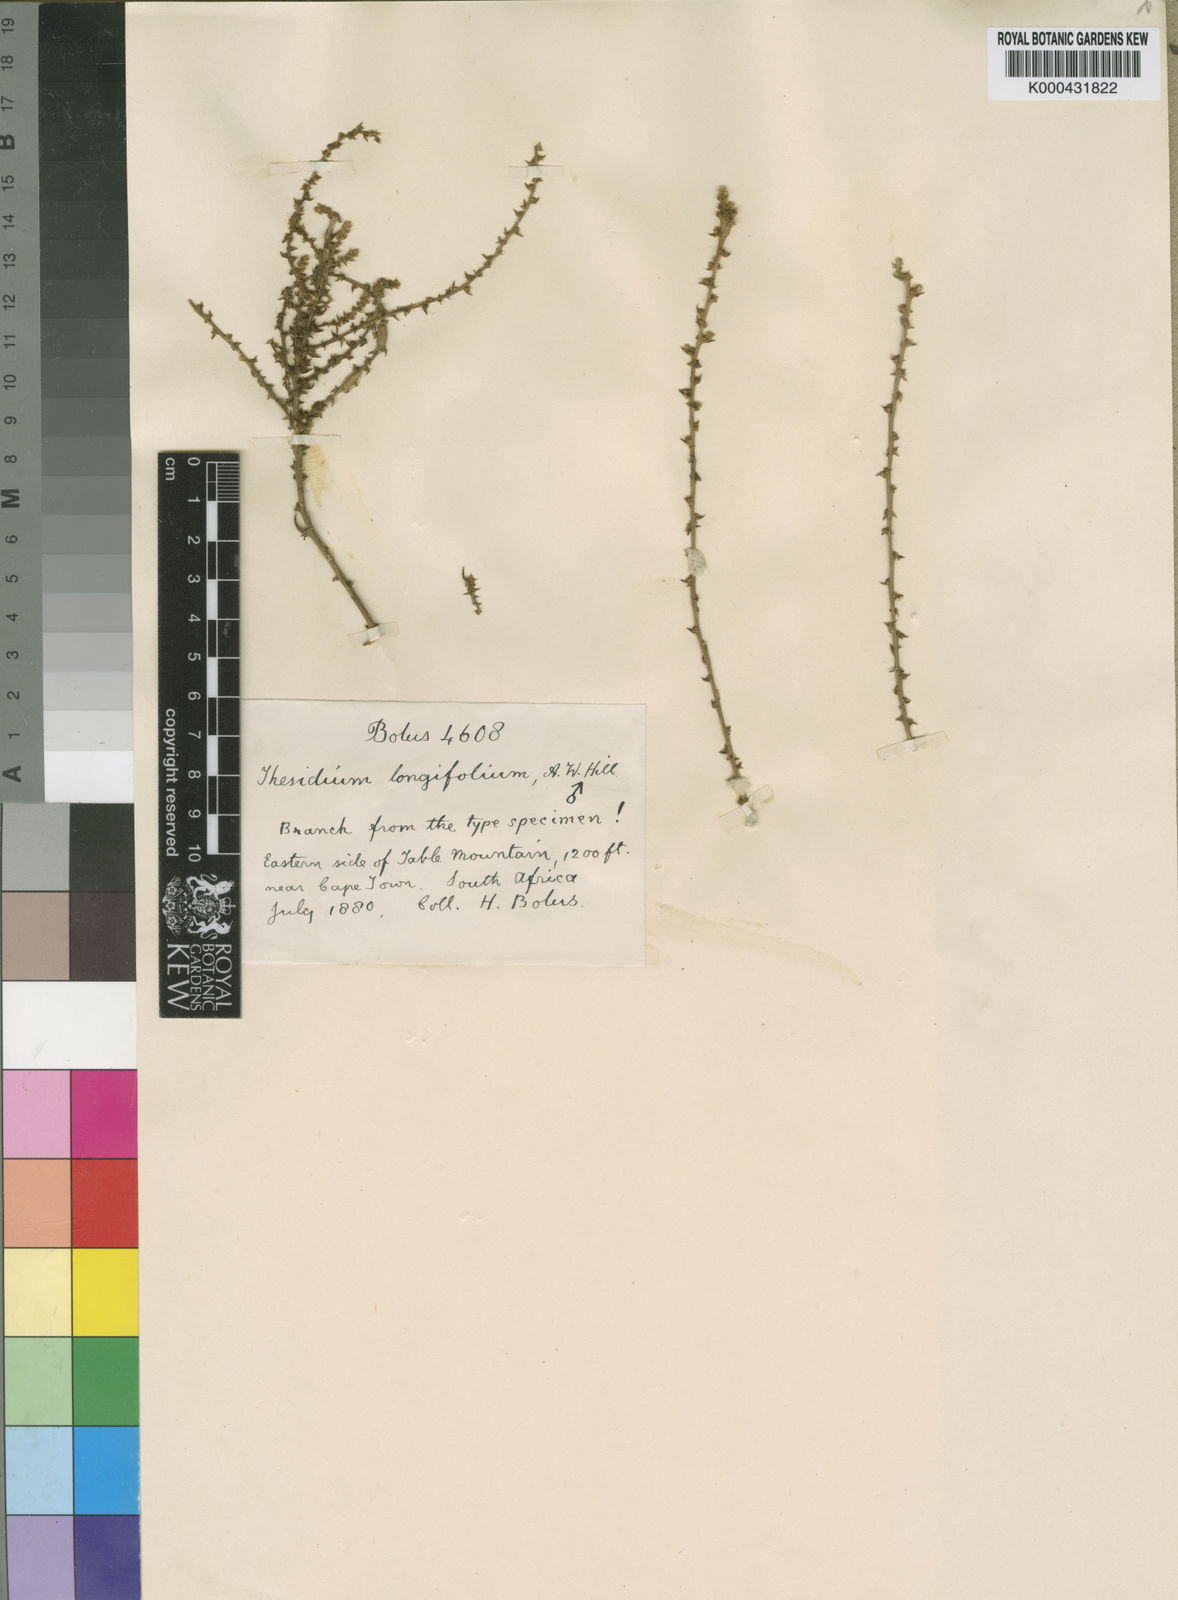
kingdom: Plantae
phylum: Tracheophyta
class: Magnoliopsida
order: Santalales
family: Thesiaceae
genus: Thesium
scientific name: Thesium longicaule
